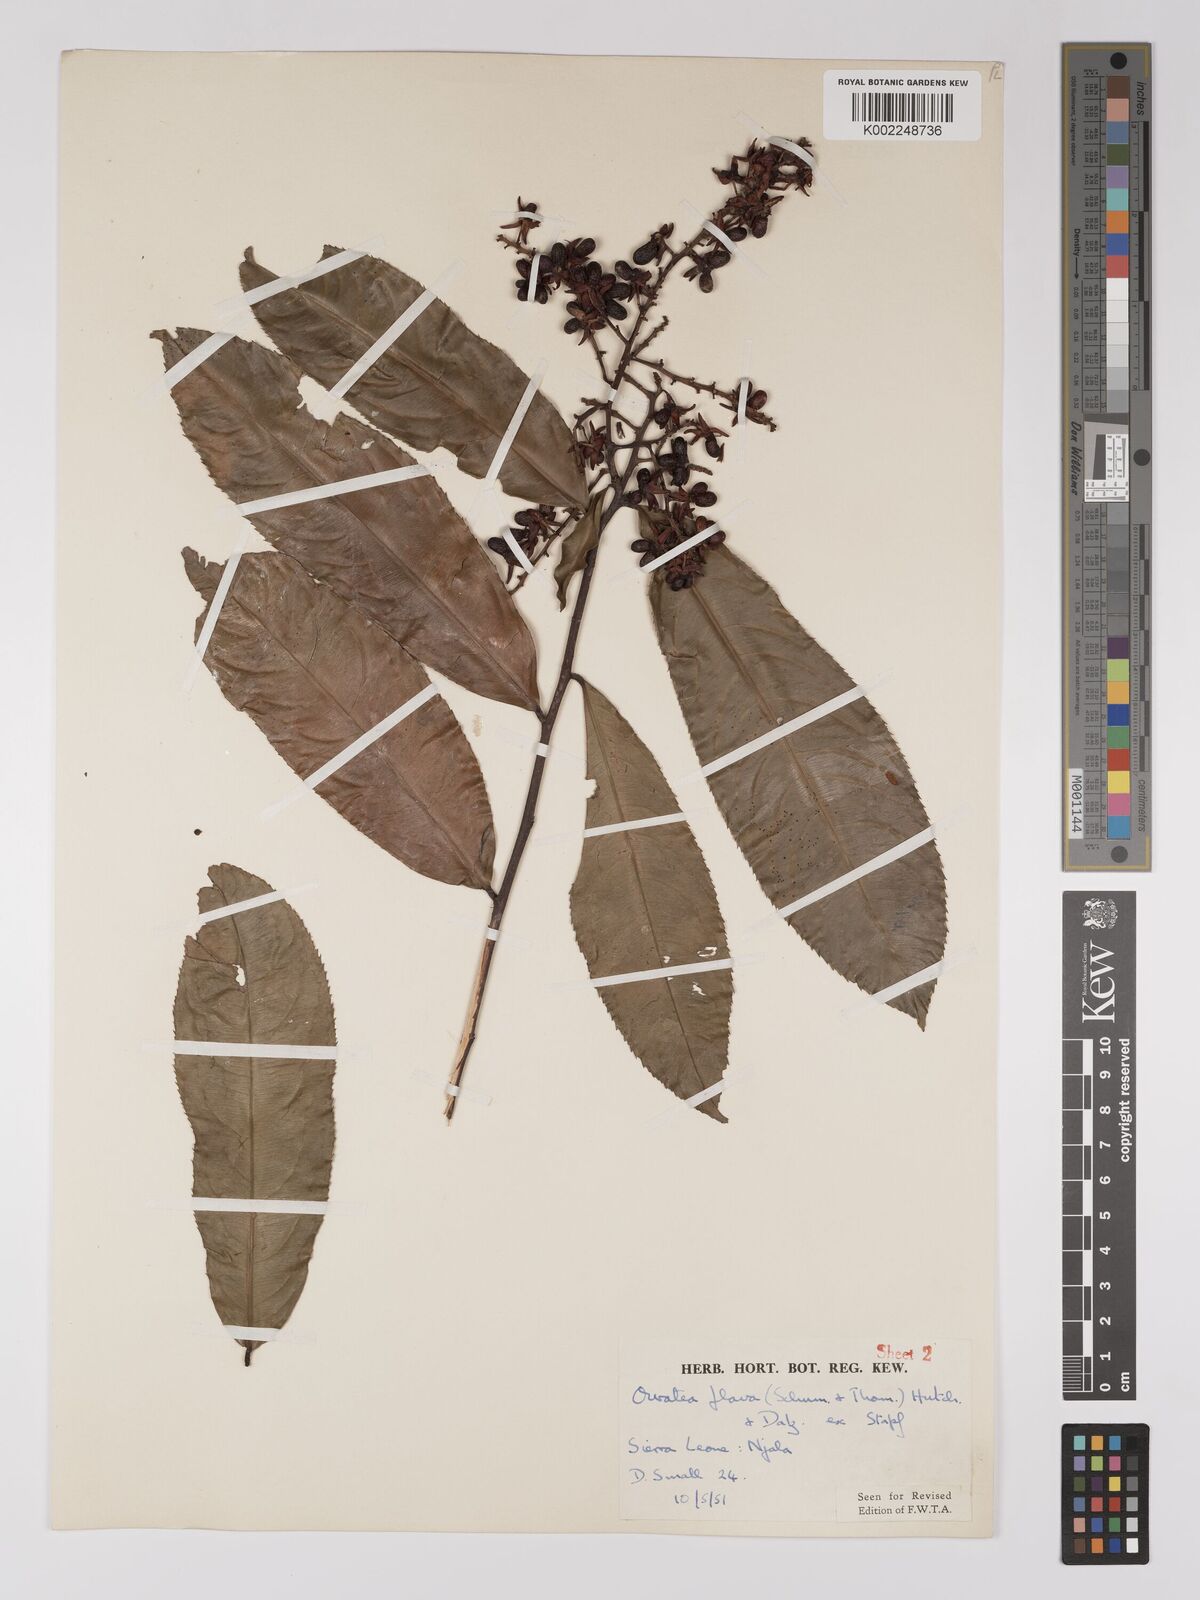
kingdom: Plantae
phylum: Tracheophyta
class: Magnoliopsida
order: Malpighiales
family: Ochnaceae
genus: Campylospermum
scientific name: Campylospermum flavum
